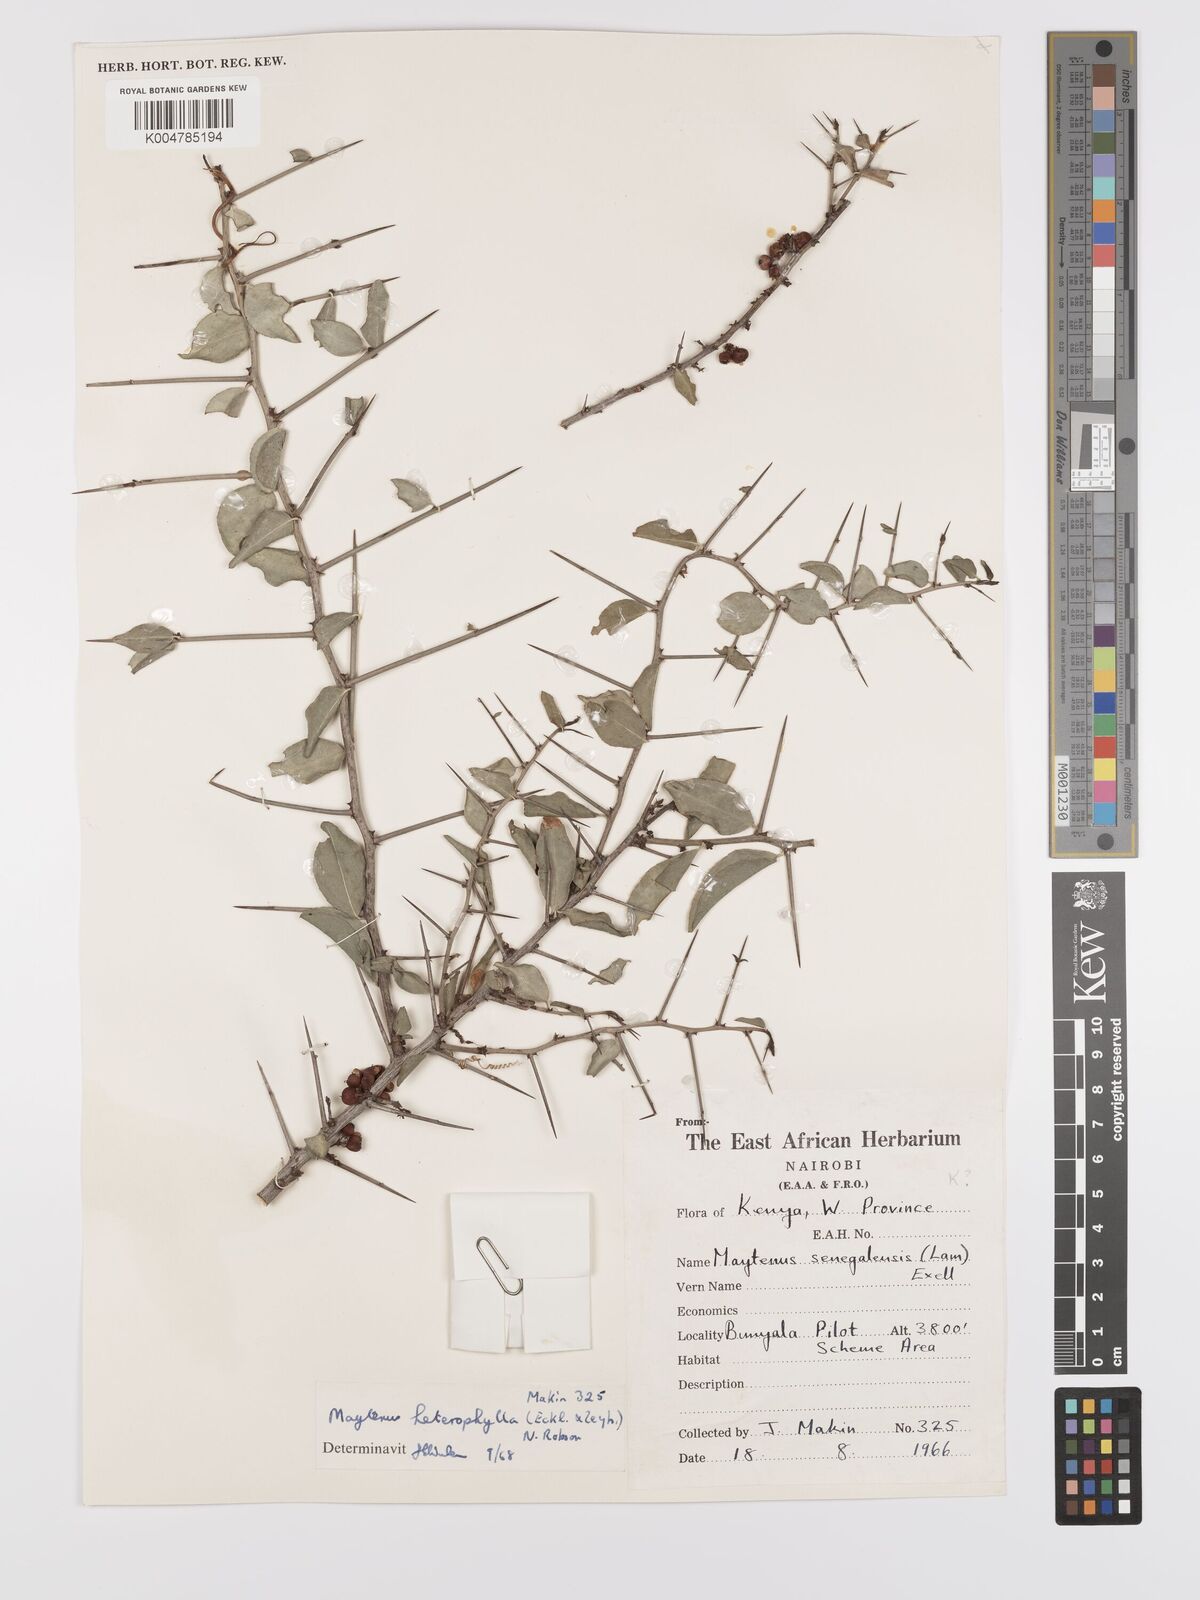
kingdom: Plantae
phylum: Tracheophyta
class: Magnoliopsida
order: Celastrales
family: Celastraceae
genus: Gymnosporia
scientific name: Gymnosporia heterophylla
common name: Angle-stem spikethorn
